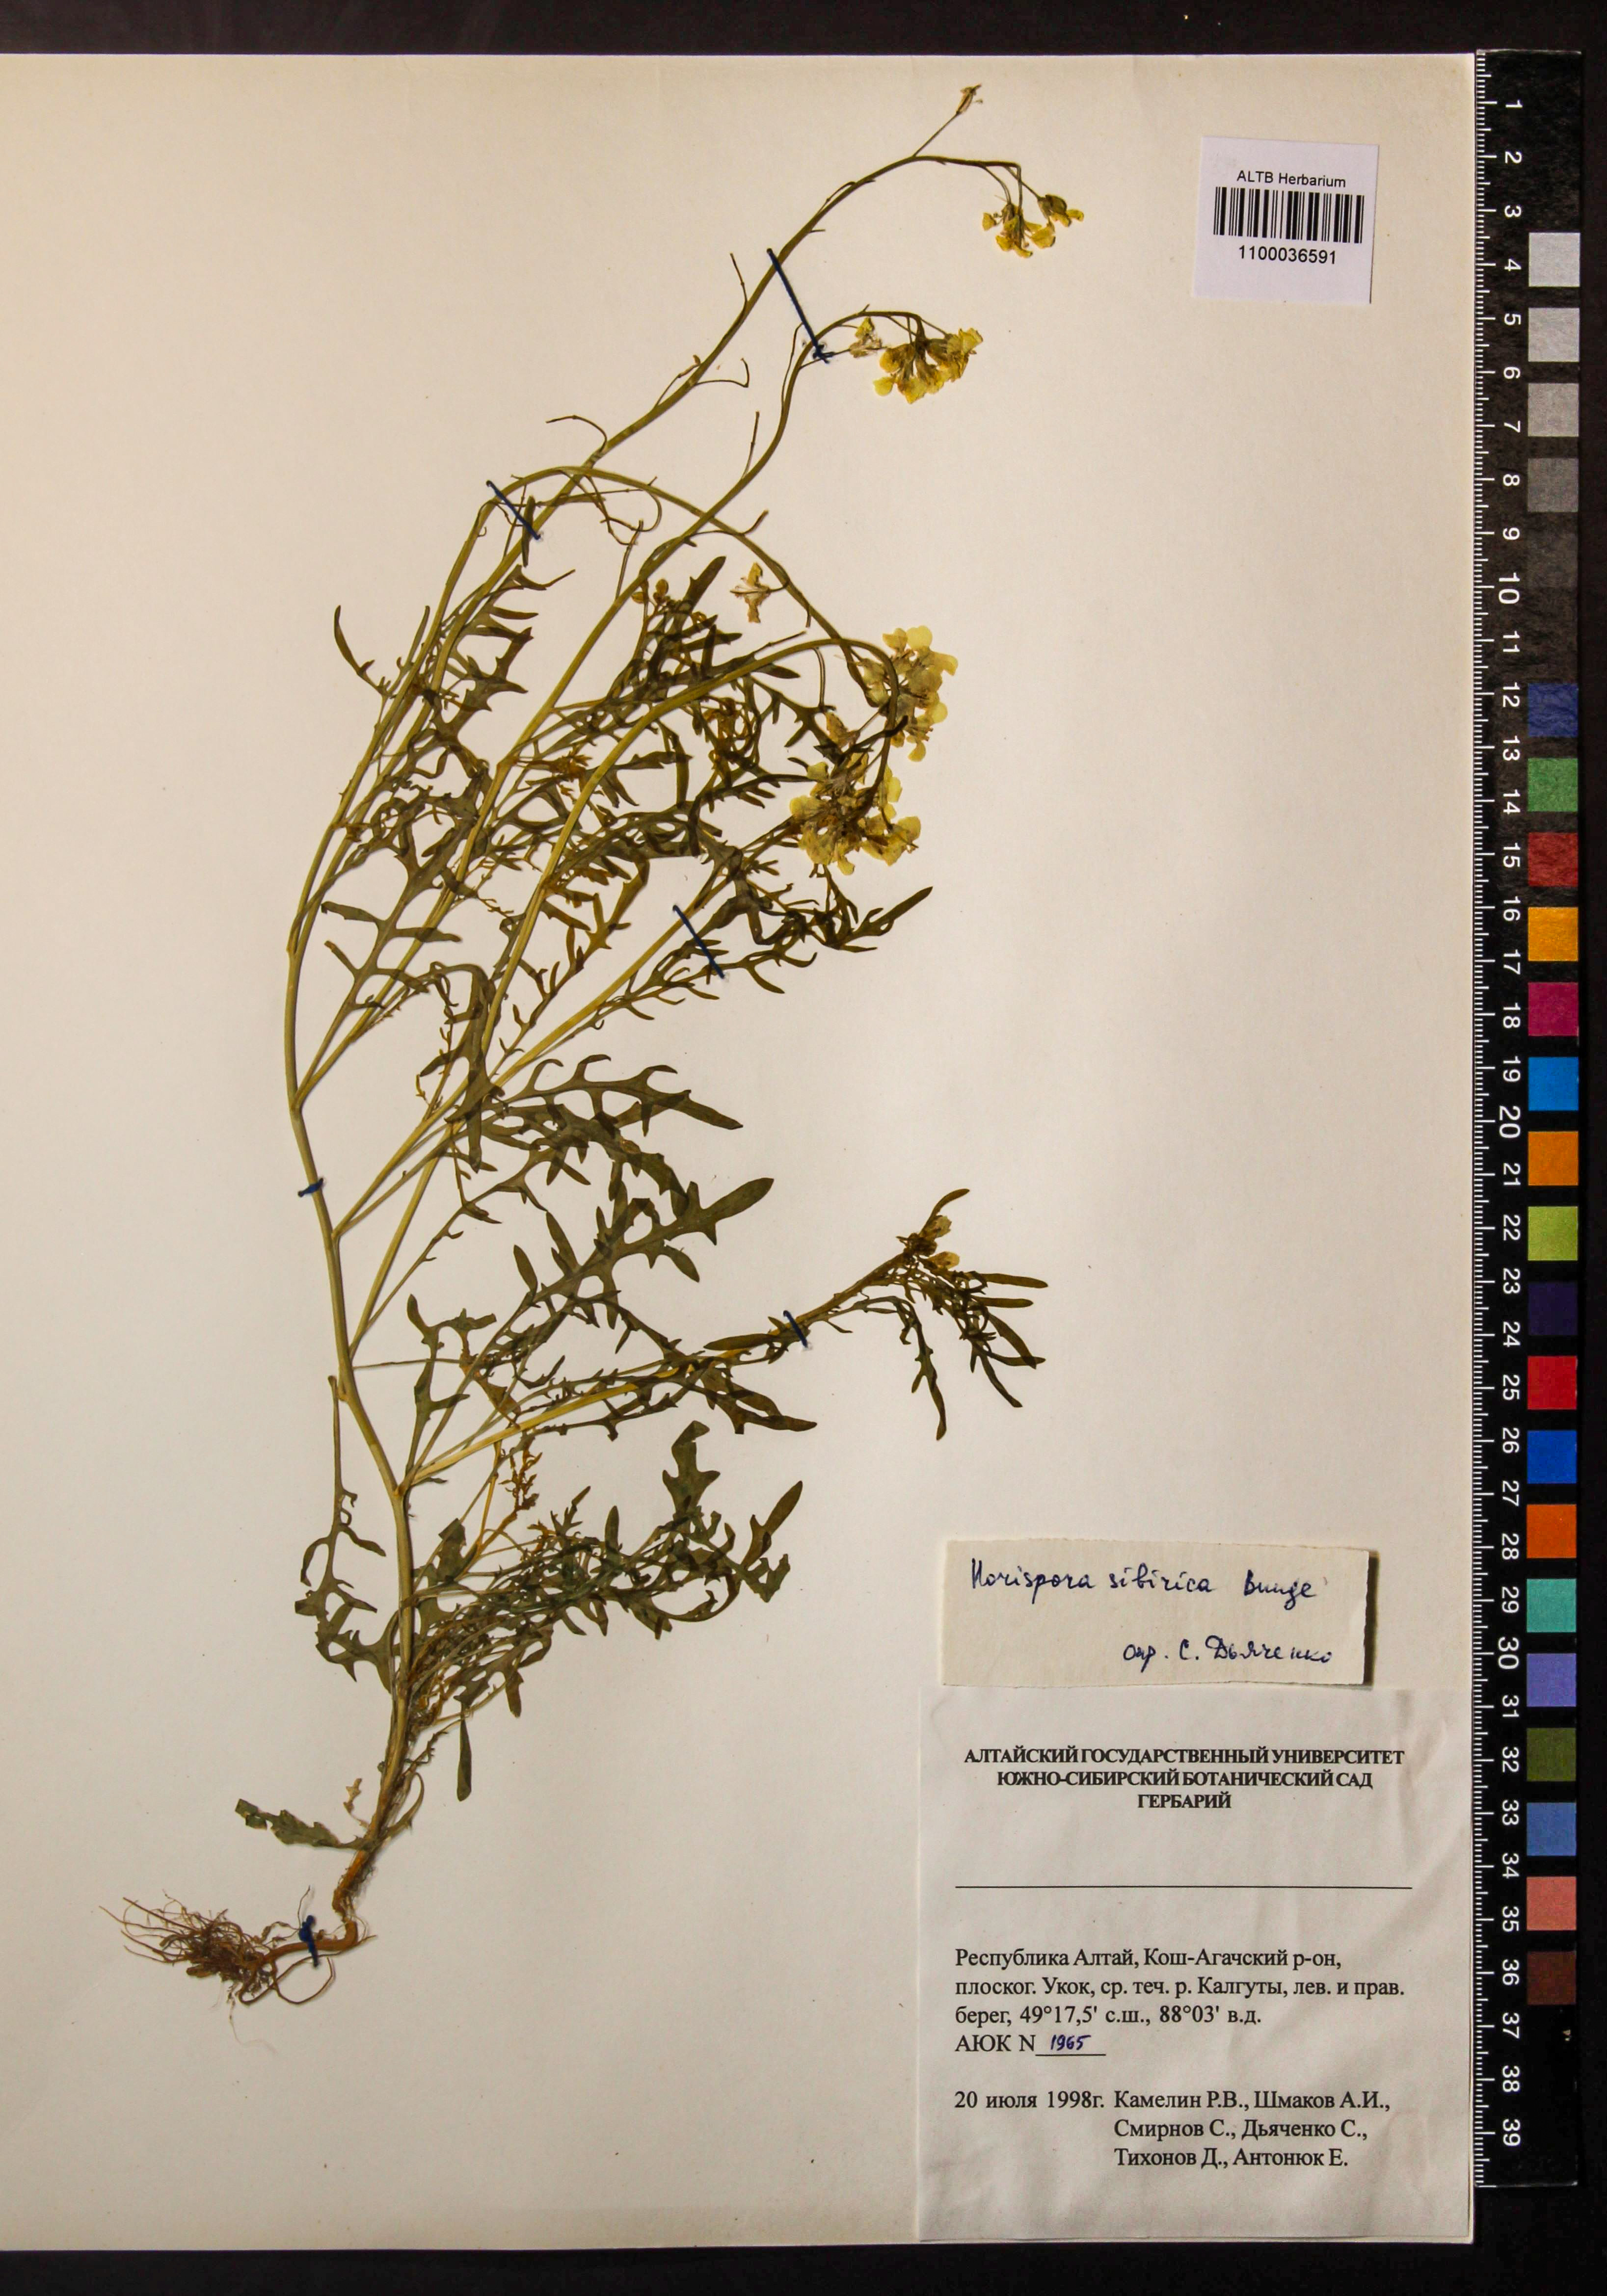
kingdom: Plantae
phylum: Tracheophyta
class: Magnoliopsida
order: Brassicales
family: Brassicaceae
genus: Chorispora
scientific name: Chorispora sibirica
